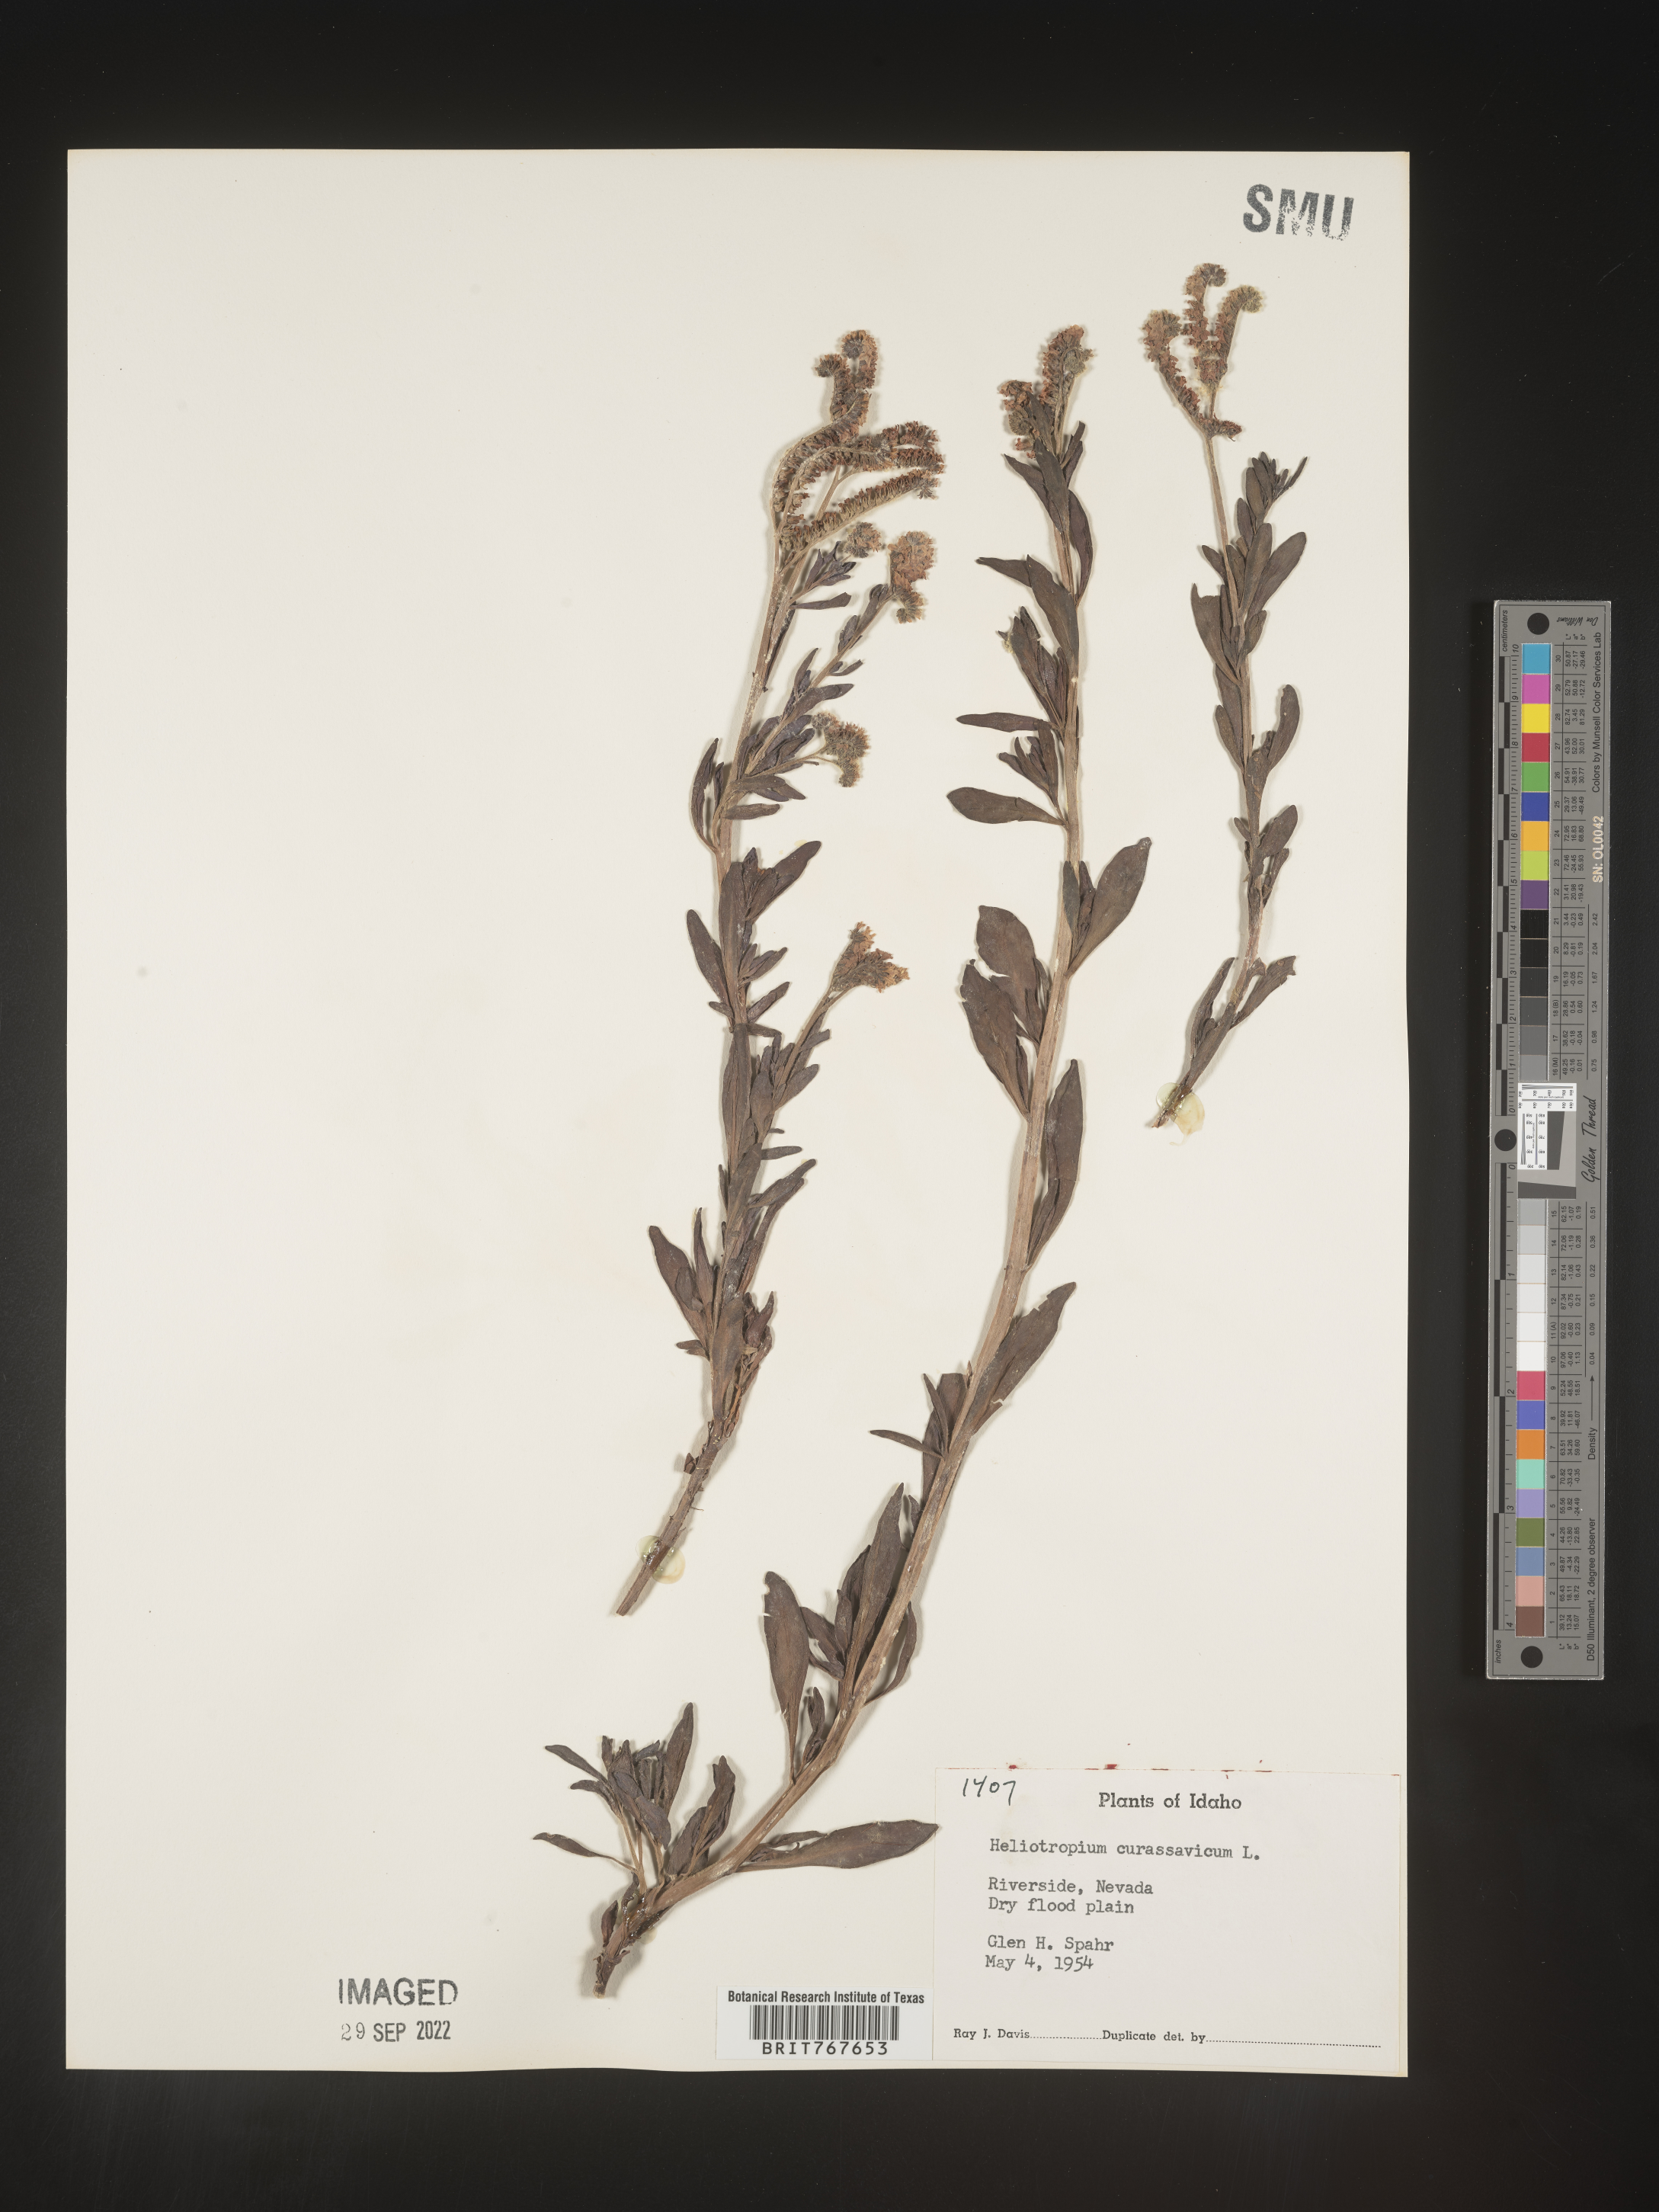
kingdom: Plantae
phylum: Tracheophyta
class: Magnoliopsida
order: Boraginales
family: Heliotropiaceae
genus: Heliotropium
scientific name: Heliotropium curassavicum
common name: Seaside heliotrope
